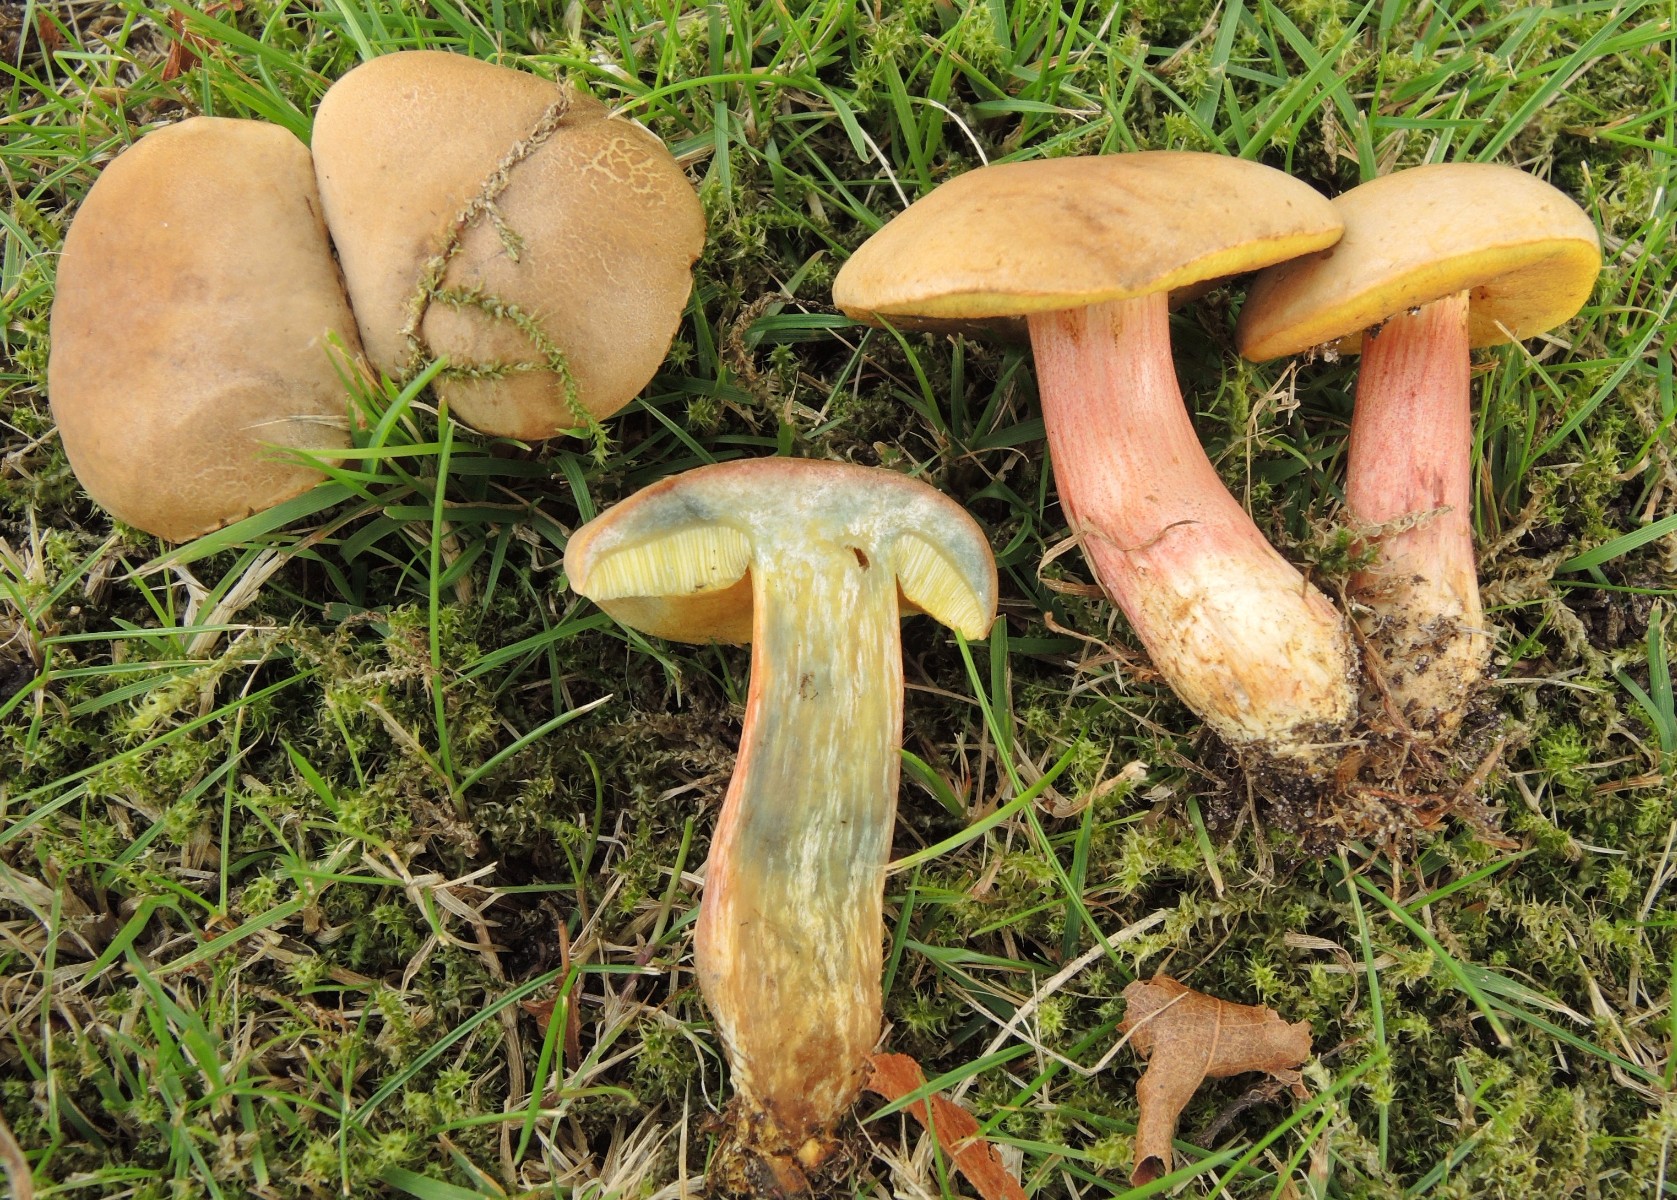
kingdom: Fungi
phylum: Basidiomycota
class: Agaricomycetes
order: Boletales
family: Boletaceae
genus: Hortiboletus
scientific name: Hortiboletus bubalinus
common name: aurora-rørhat
